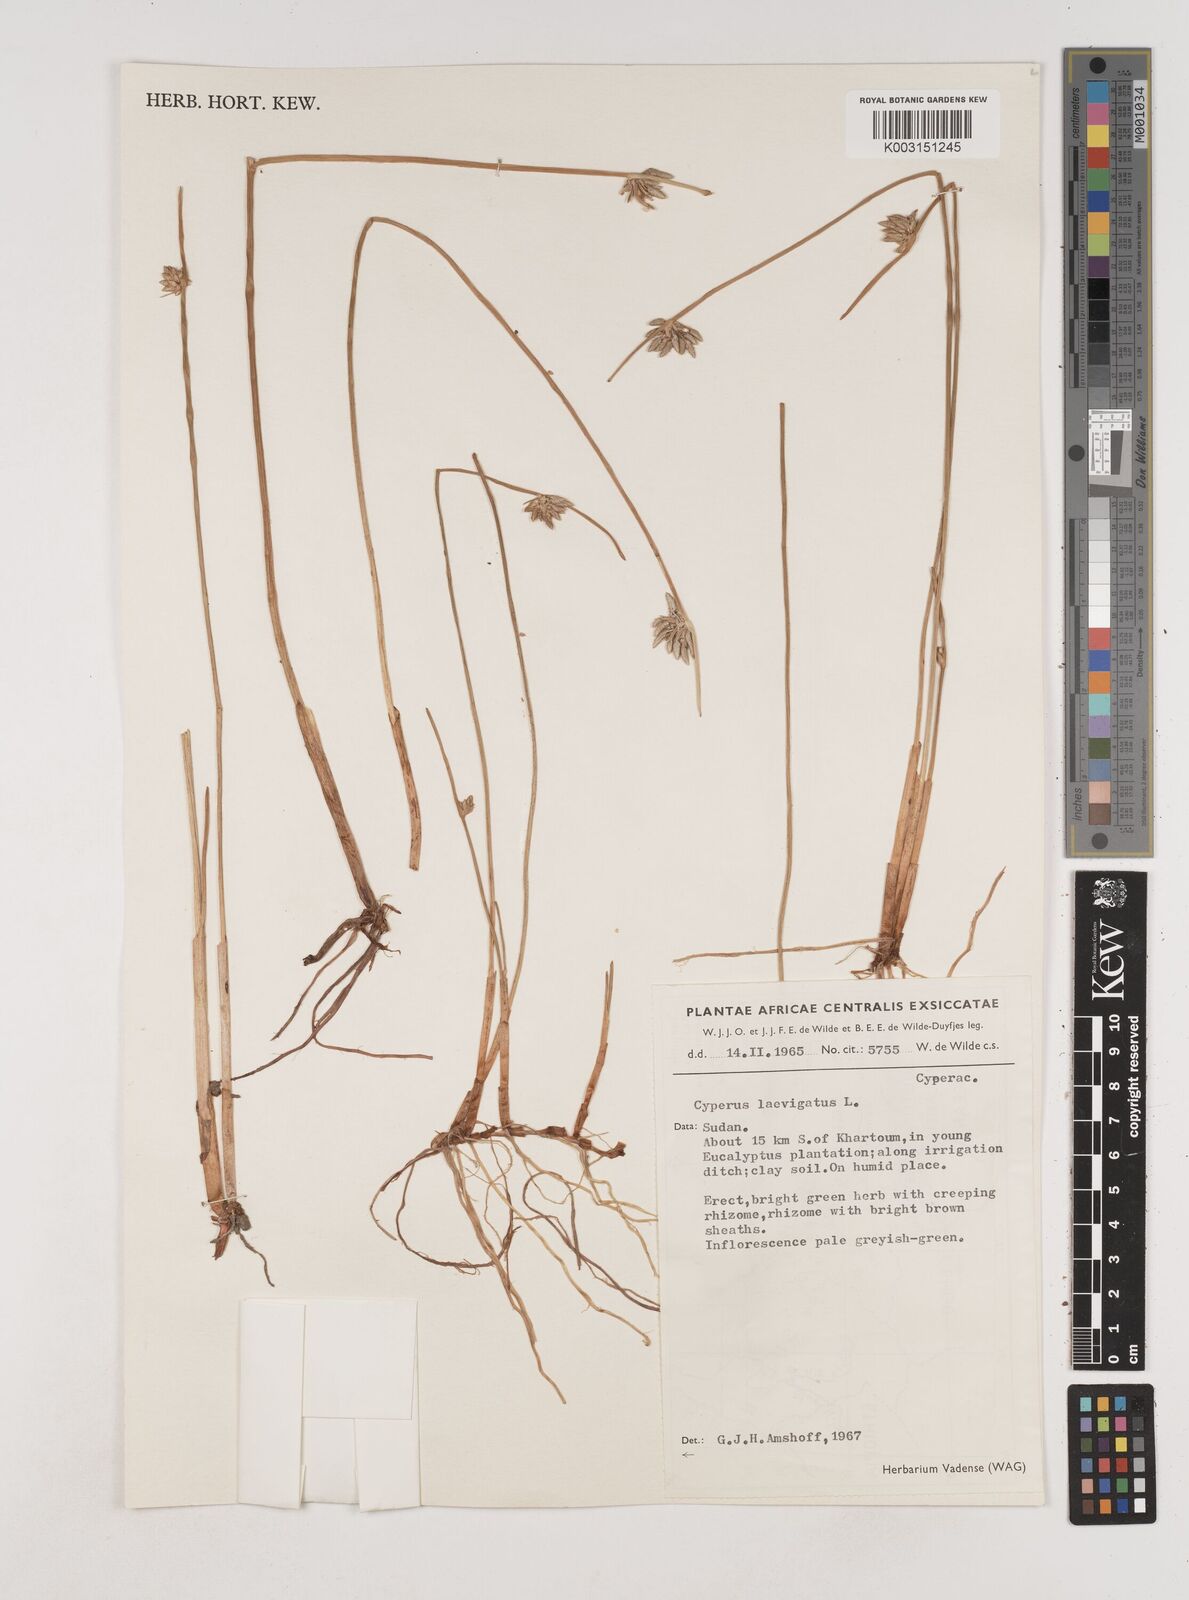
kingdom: Plantae
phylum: Tracheophyta
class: Liliopsida
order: Poales
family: Cyperaceae
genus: Cyperus
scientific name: Cyperus laevigatus
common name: Smooth flat sedge
